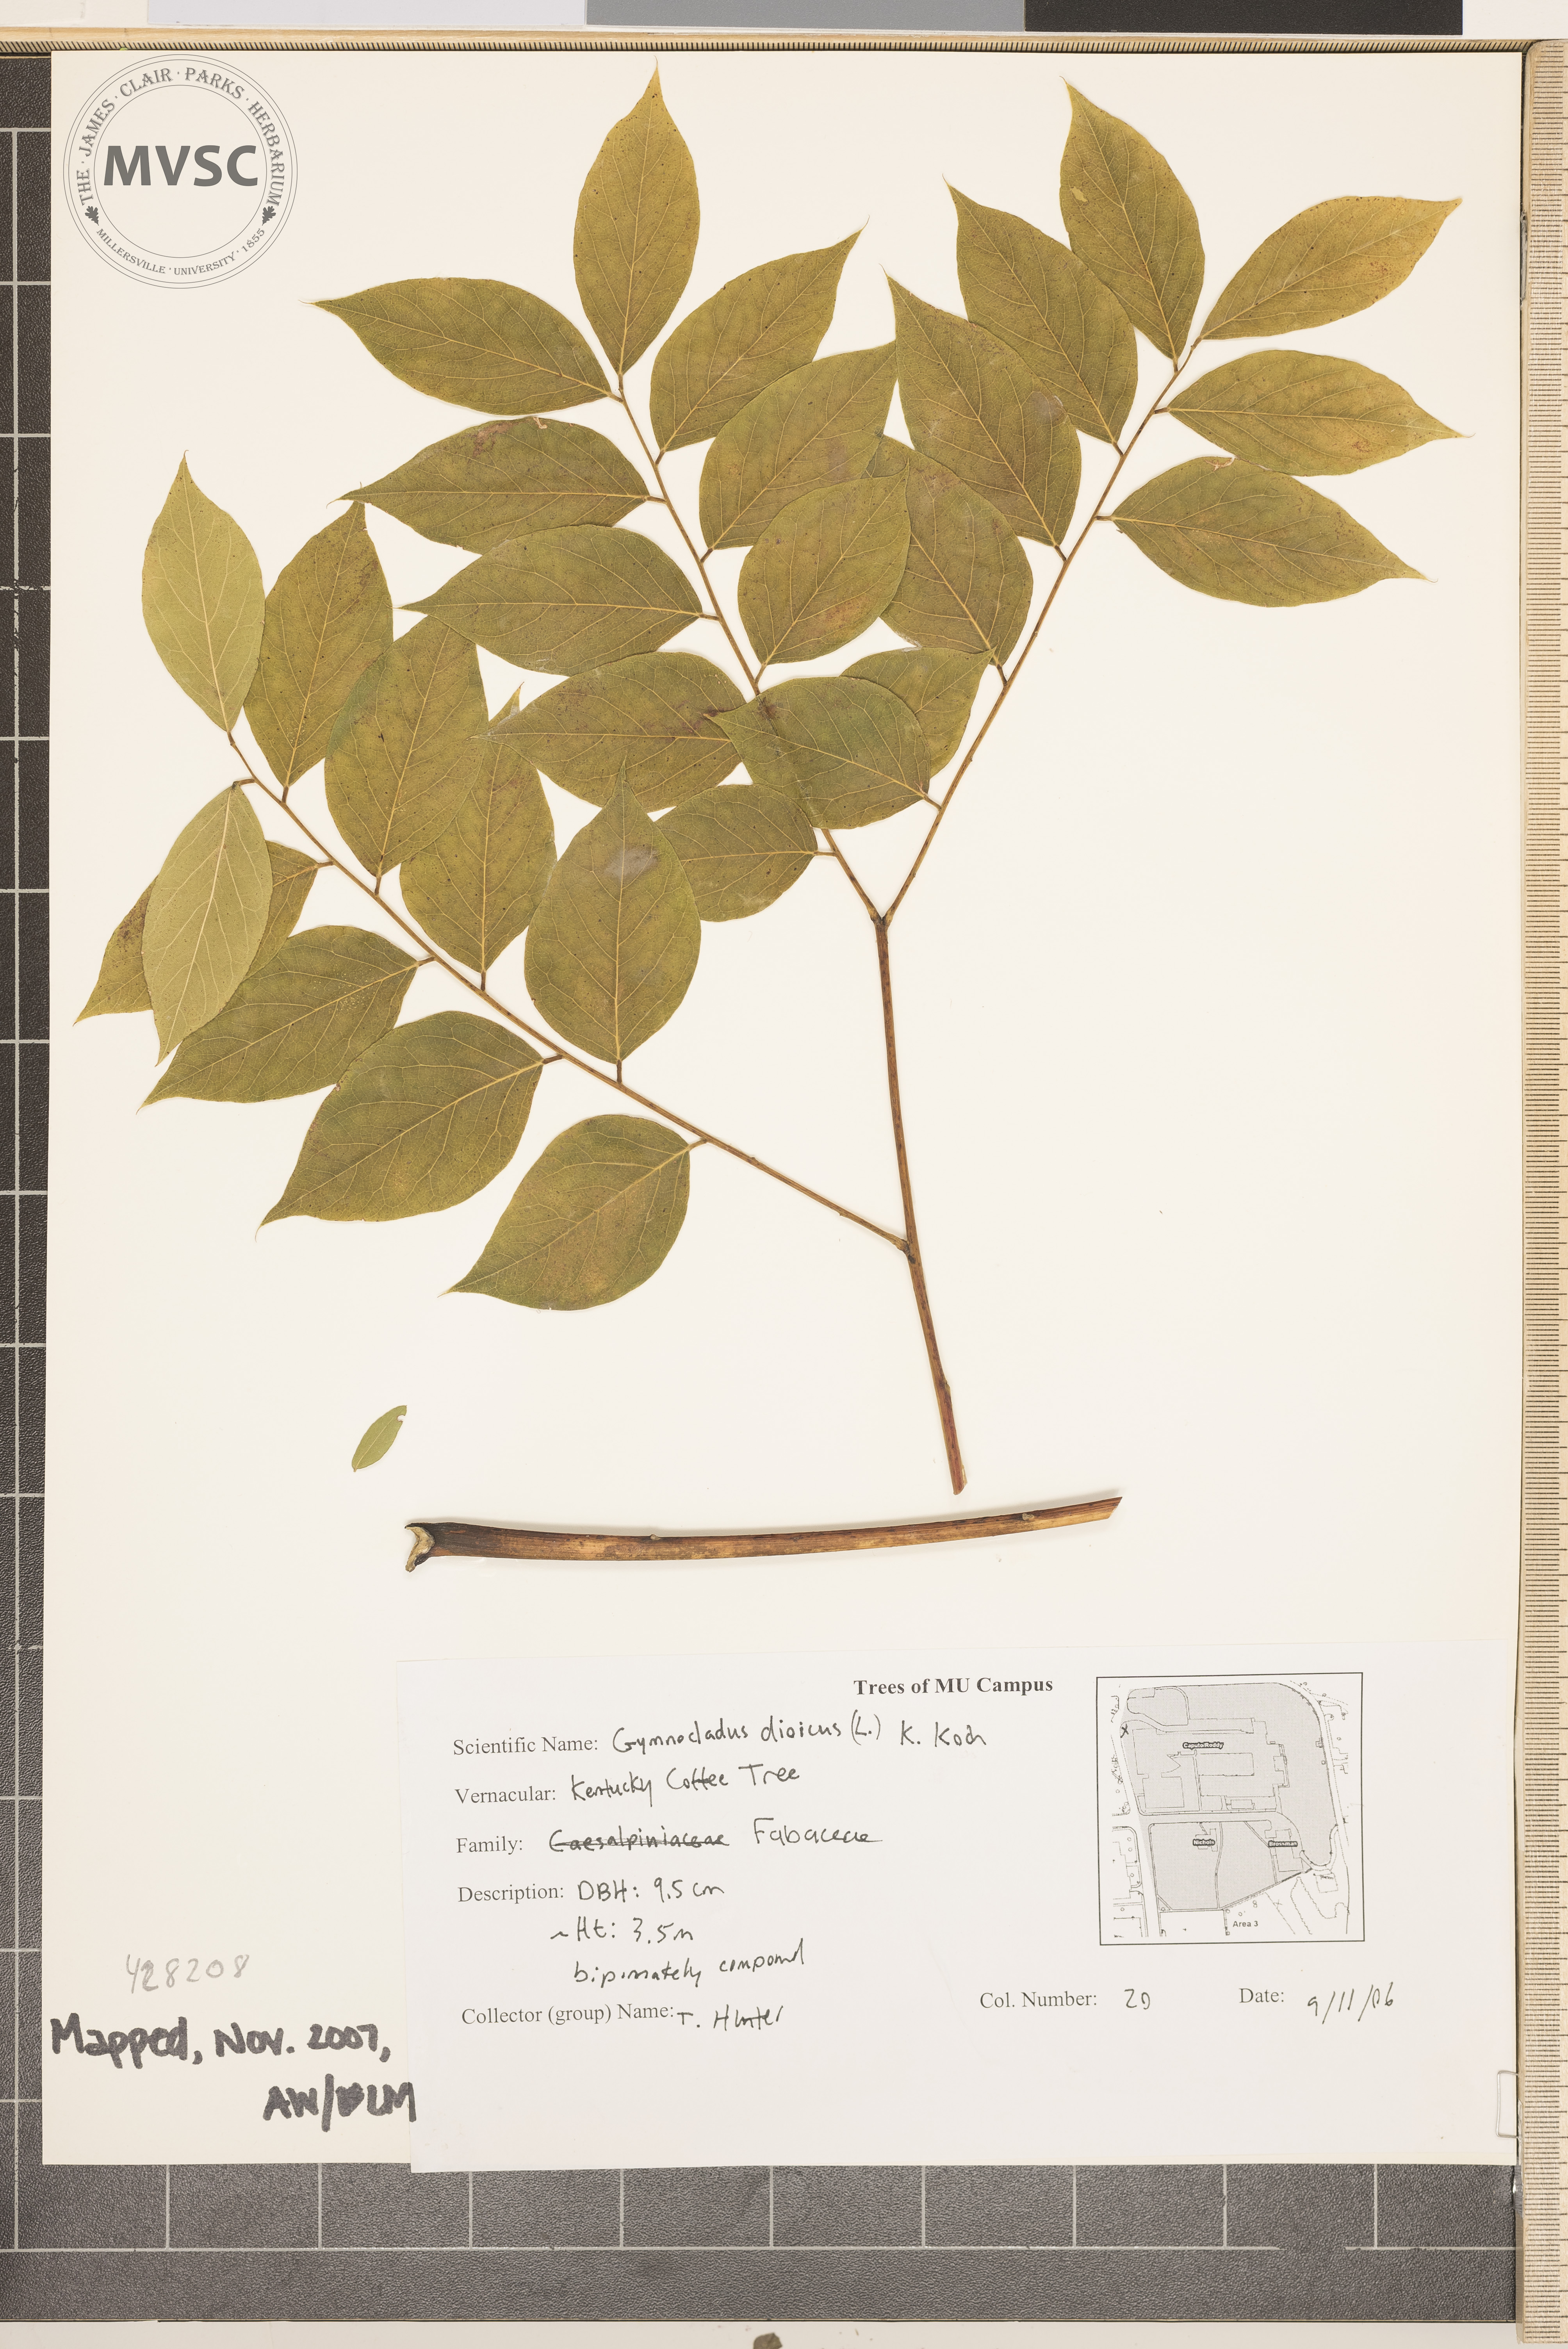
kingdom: Plantae
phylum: Tracheophyta
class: Magnoliopsida
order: Fabales
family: Fabaceae
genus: Gymnocladus
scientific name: Gymnocladus dioicus
